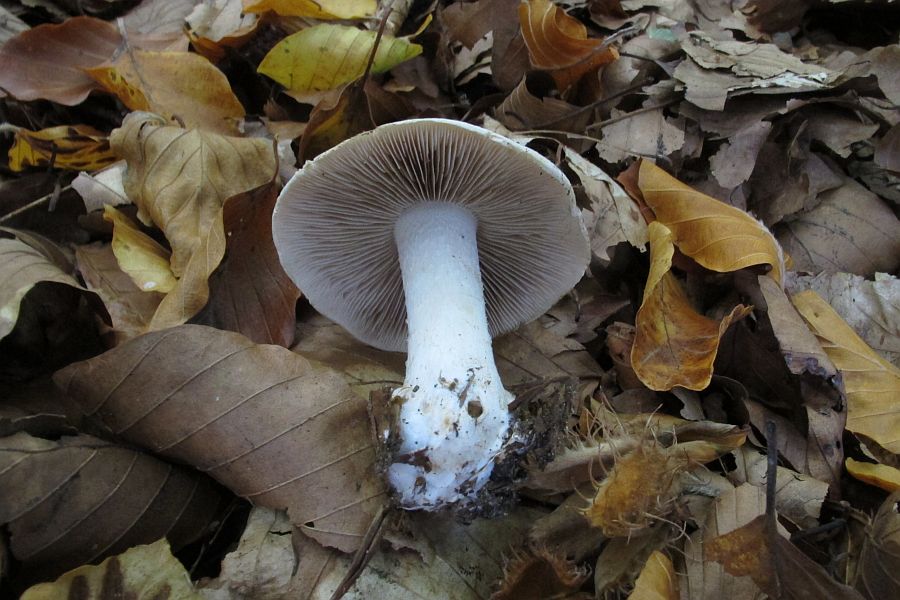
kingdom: Fungi
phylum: Basidiomycota
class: Agaricomycetes
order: Agaricales
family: Hymenogastraceae
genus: Hebeloma
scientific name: Hebeloma sinapizans
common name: ræddike-tåreblad
